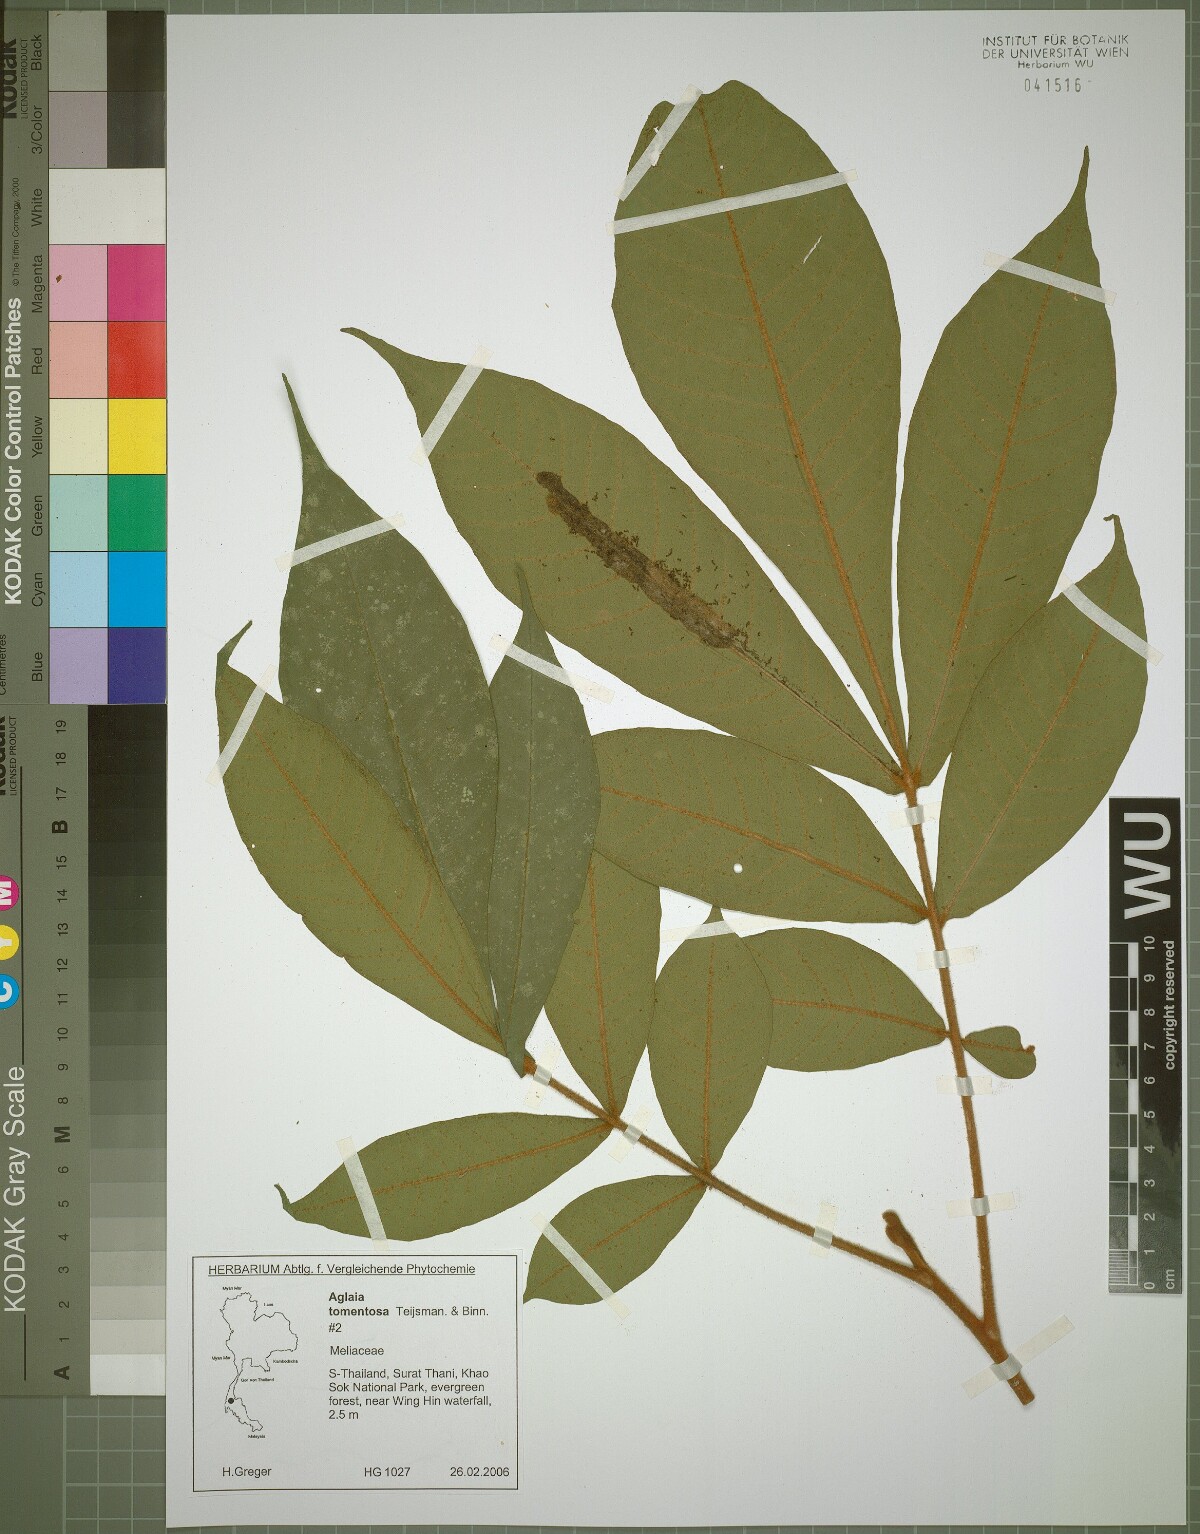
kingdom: Plantae
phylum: Tracheophyta
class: Magnoliopsida
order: Sapindales
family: Meliaceae
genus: Aglaia
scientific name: Aglaia tomentosa
